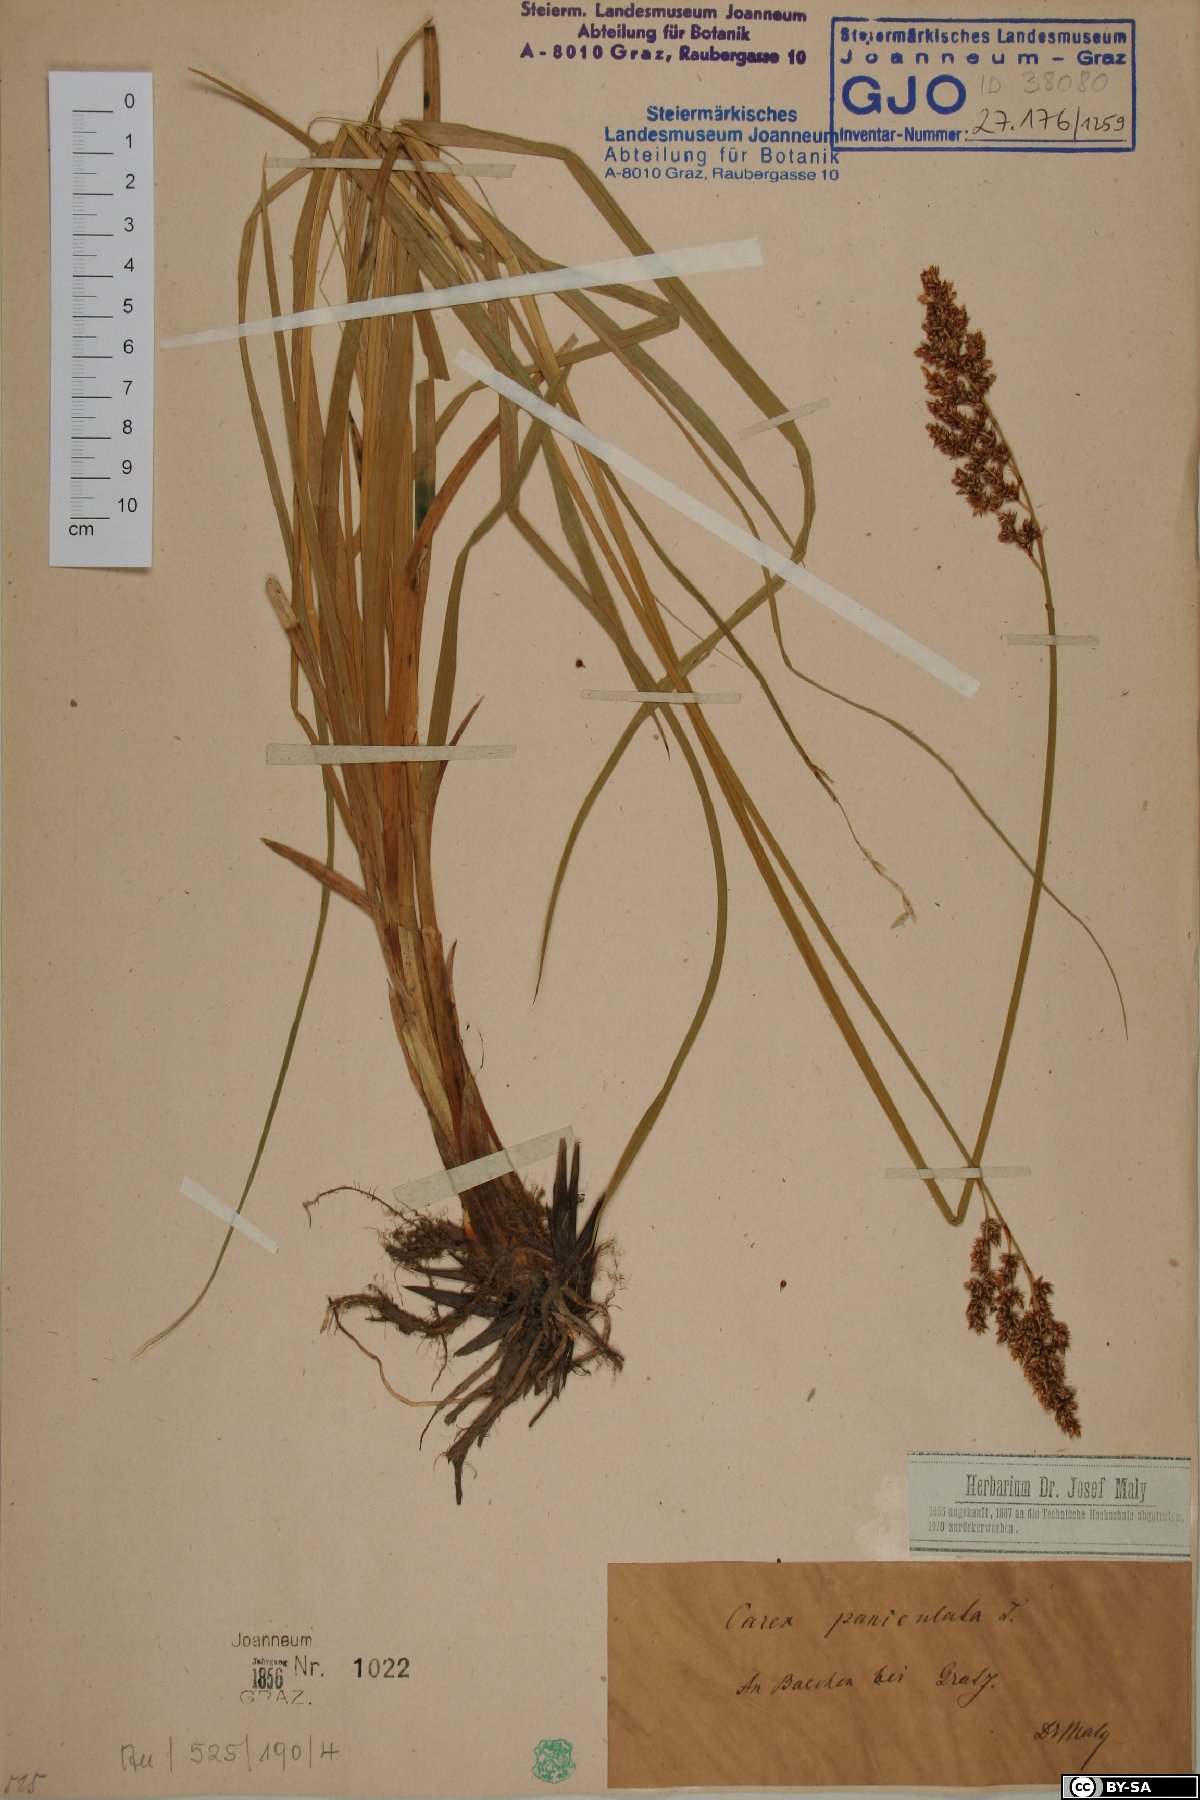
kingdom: Plantae
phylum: Tracheophyta
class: Liliopsida
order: Poales
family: Cyperaceae
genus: Carex
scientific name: Carex paniculata
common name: Greater tussock-sedge
